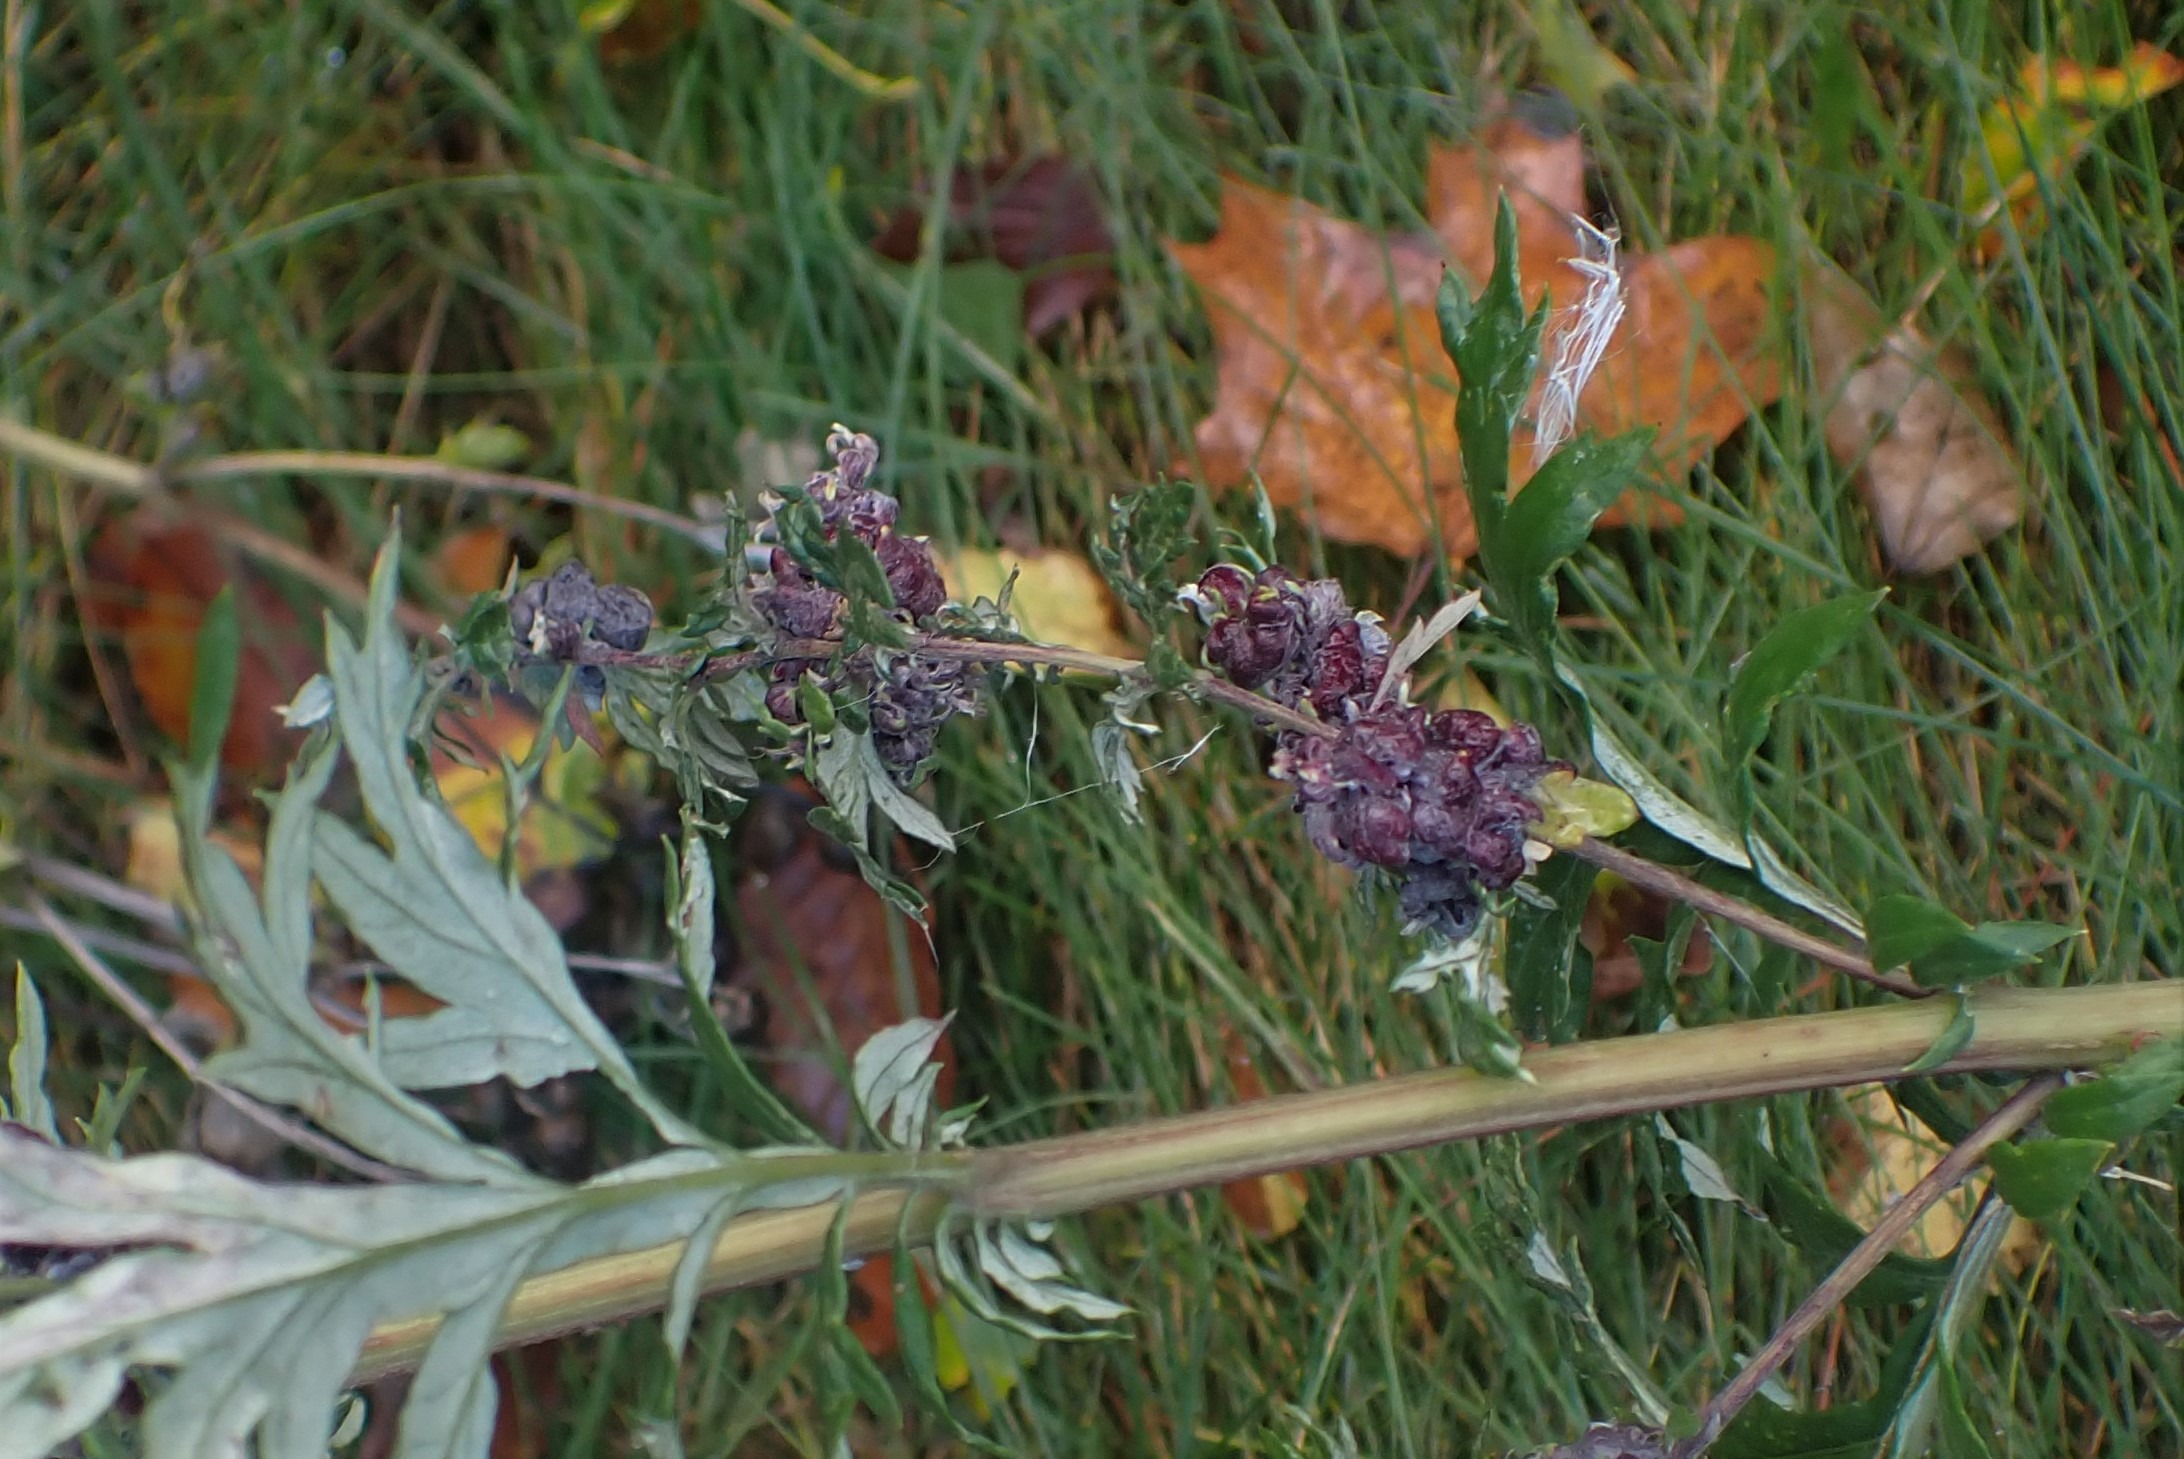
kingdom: Animalia
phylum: Arthropoda
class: Insecta
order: Hemiptera
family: Aphididae
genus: Cryptosiphum
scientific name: Cryptosiphum artemisiae
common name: Bynkegallelus
